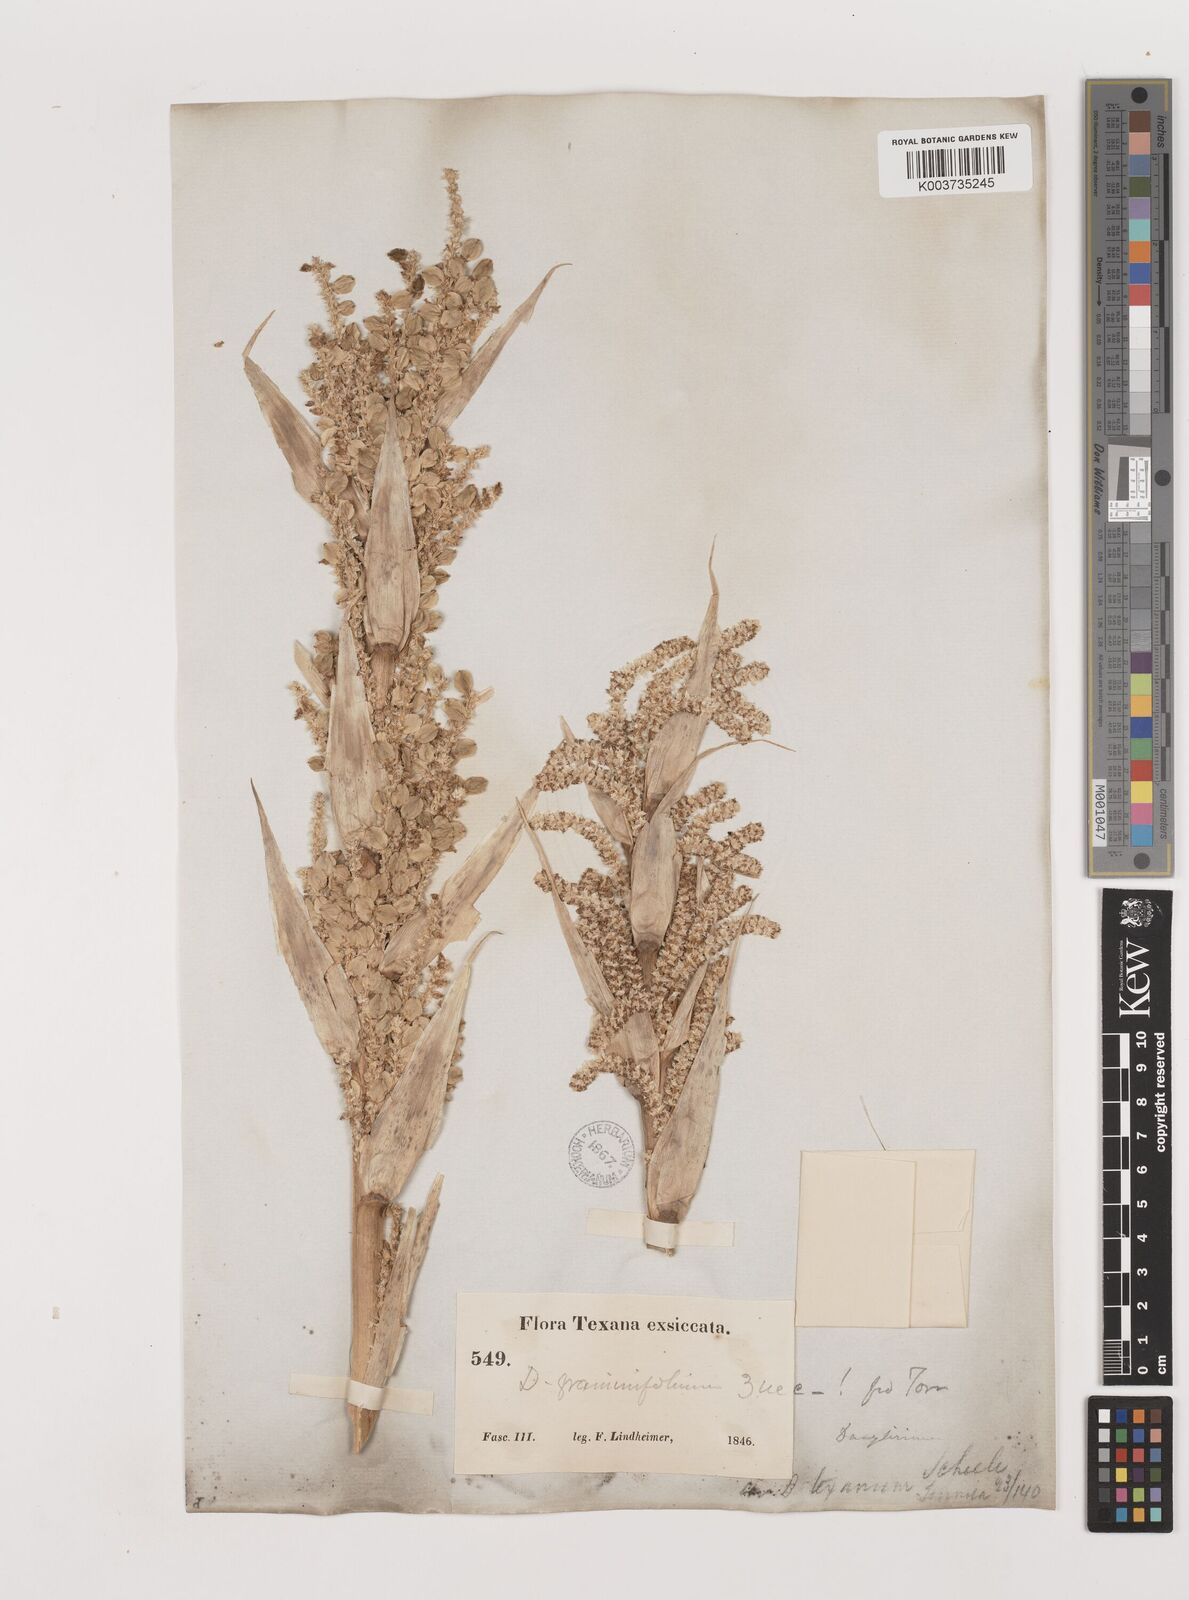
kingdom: Plantae
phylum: Tracheophyta
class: Liliopsida
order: Asparagales
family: Asparagaceae
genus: Dasylirion
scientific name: Dasylirion texanum
